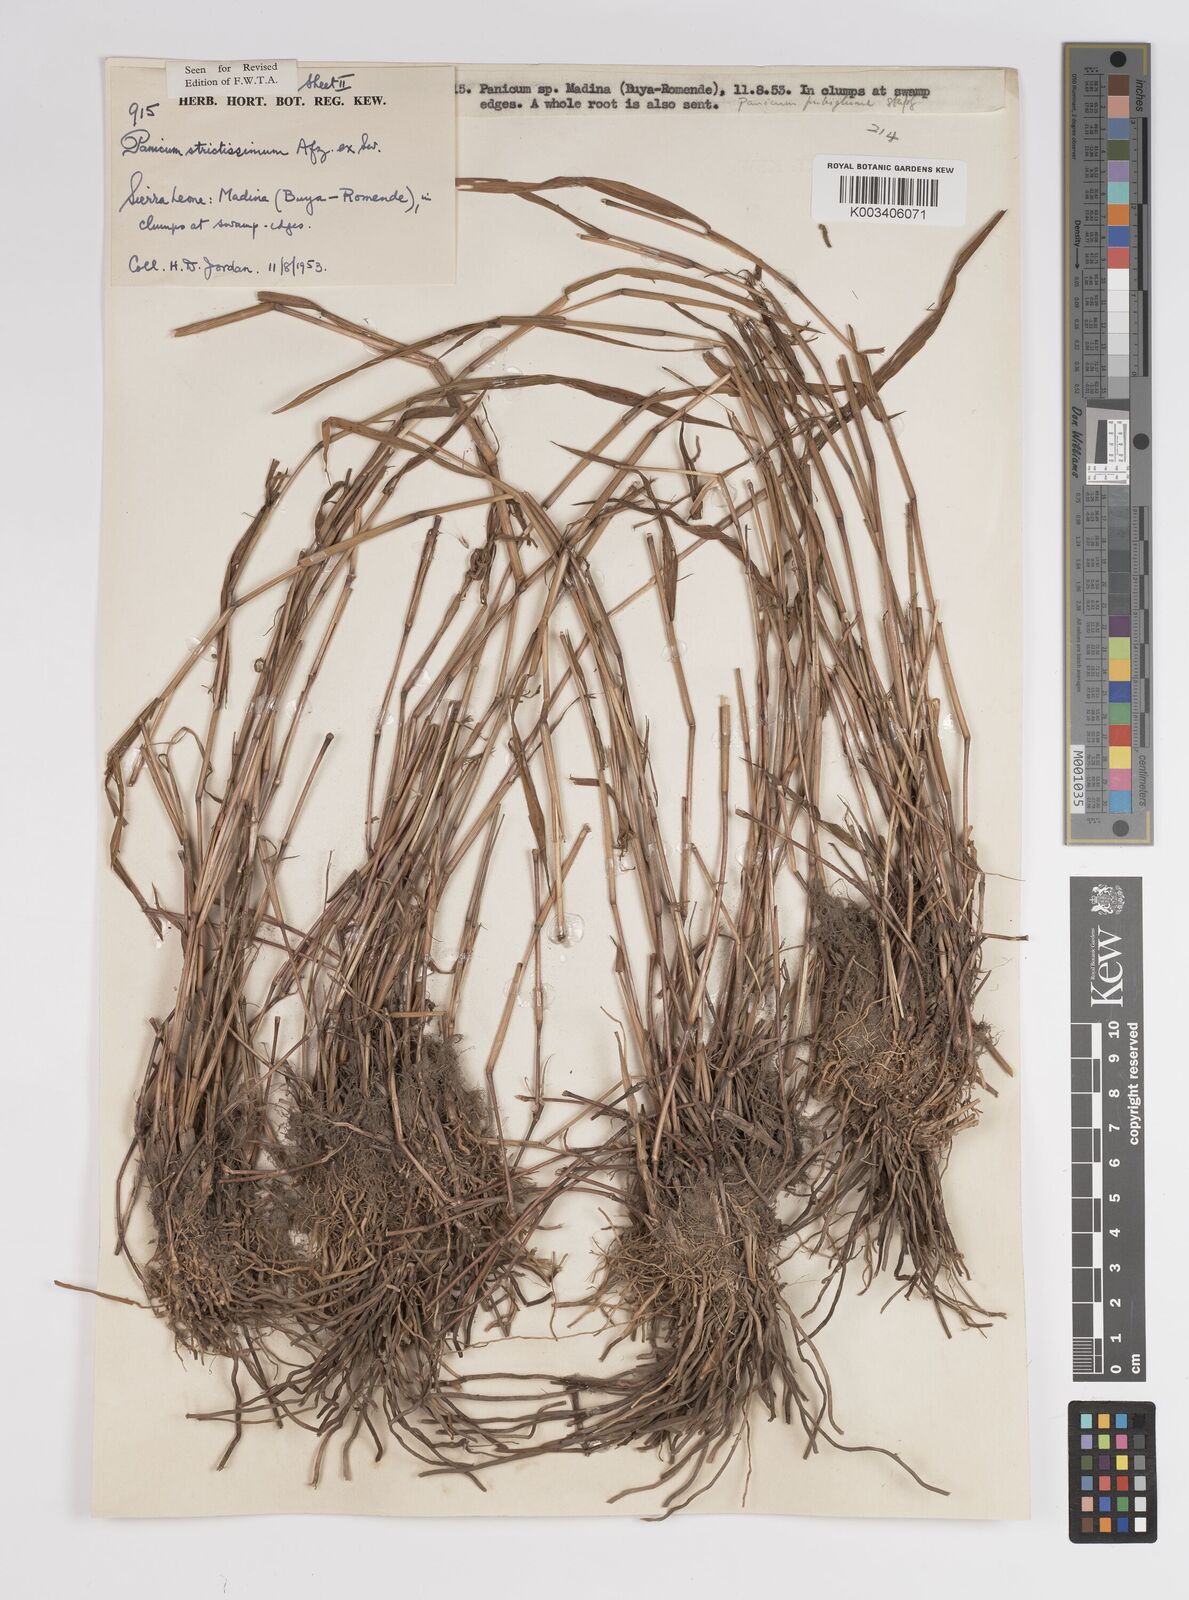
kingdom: Plantae
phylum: Tracheophyta
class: Liliopsida
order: Poales
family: Poaceae
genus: Panicum
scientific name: Panicum eickii
